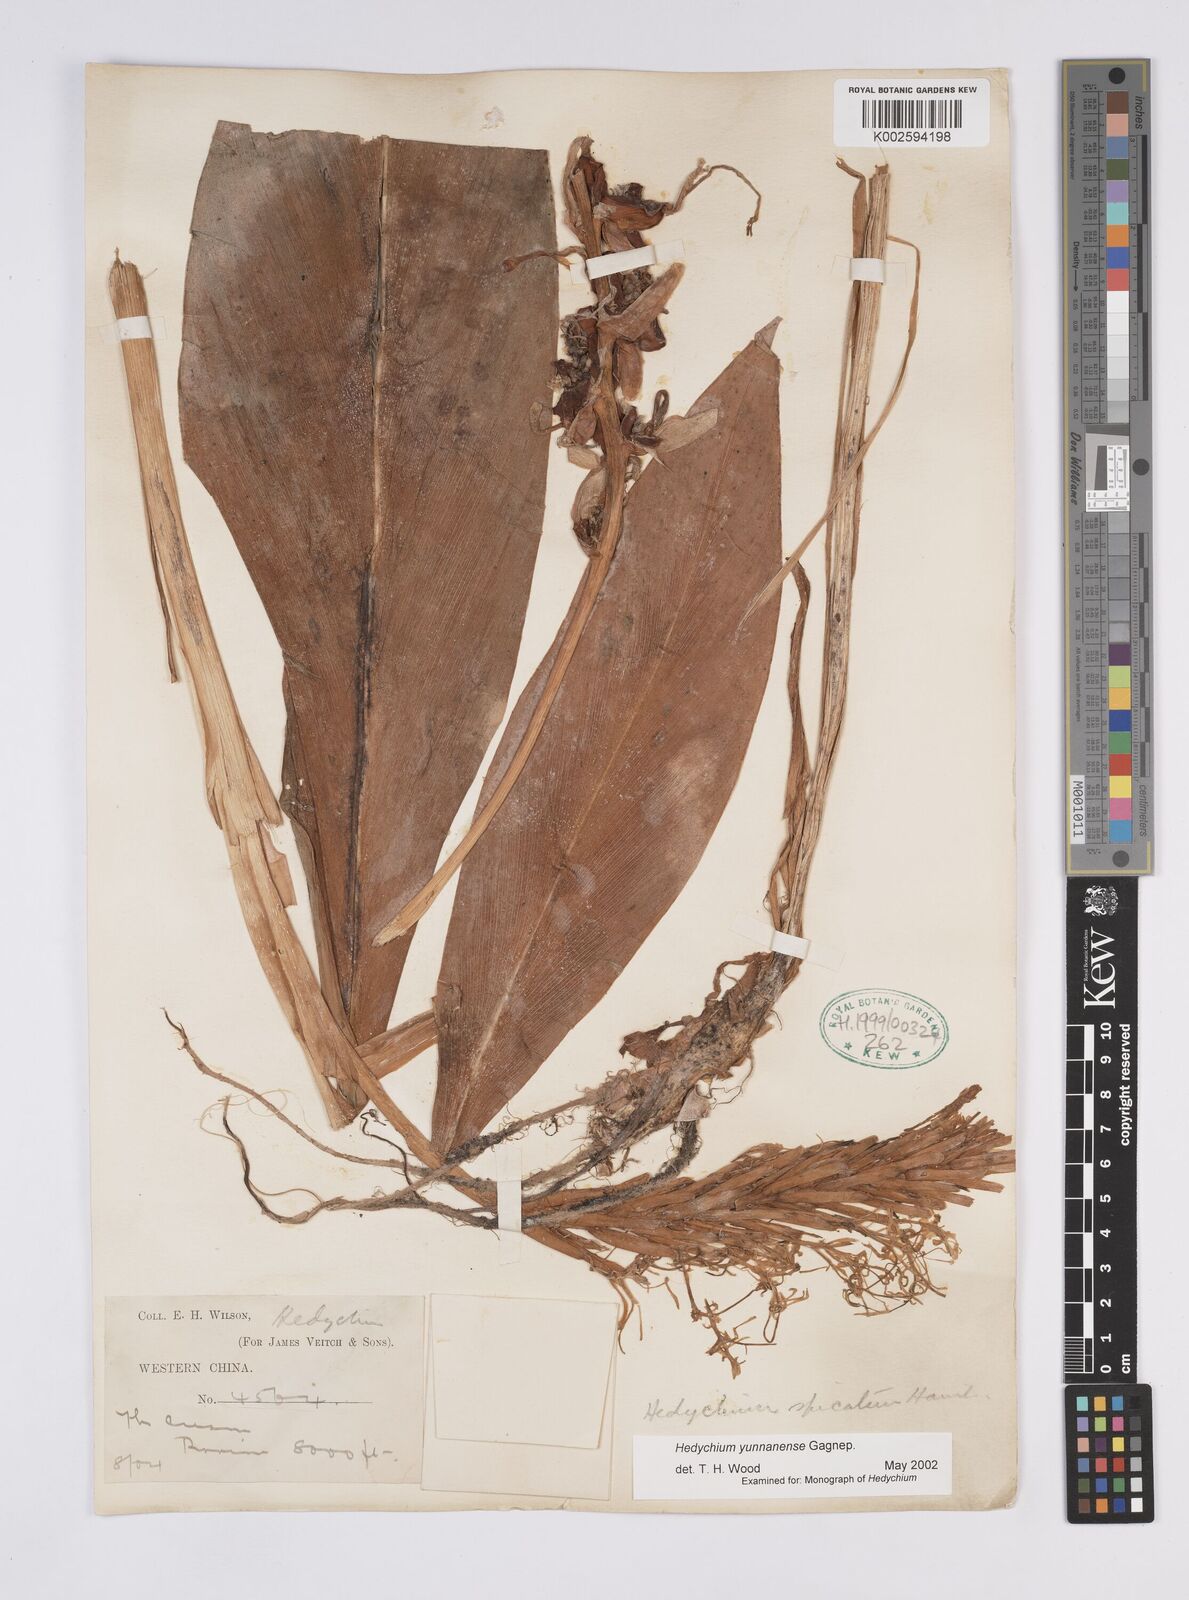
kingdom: Plantae
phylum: Tracheophyta
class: Liliopsida
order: Zingiberales
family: Zingiberaceae
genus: Hedychium
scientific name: Hedychium yunnanense
